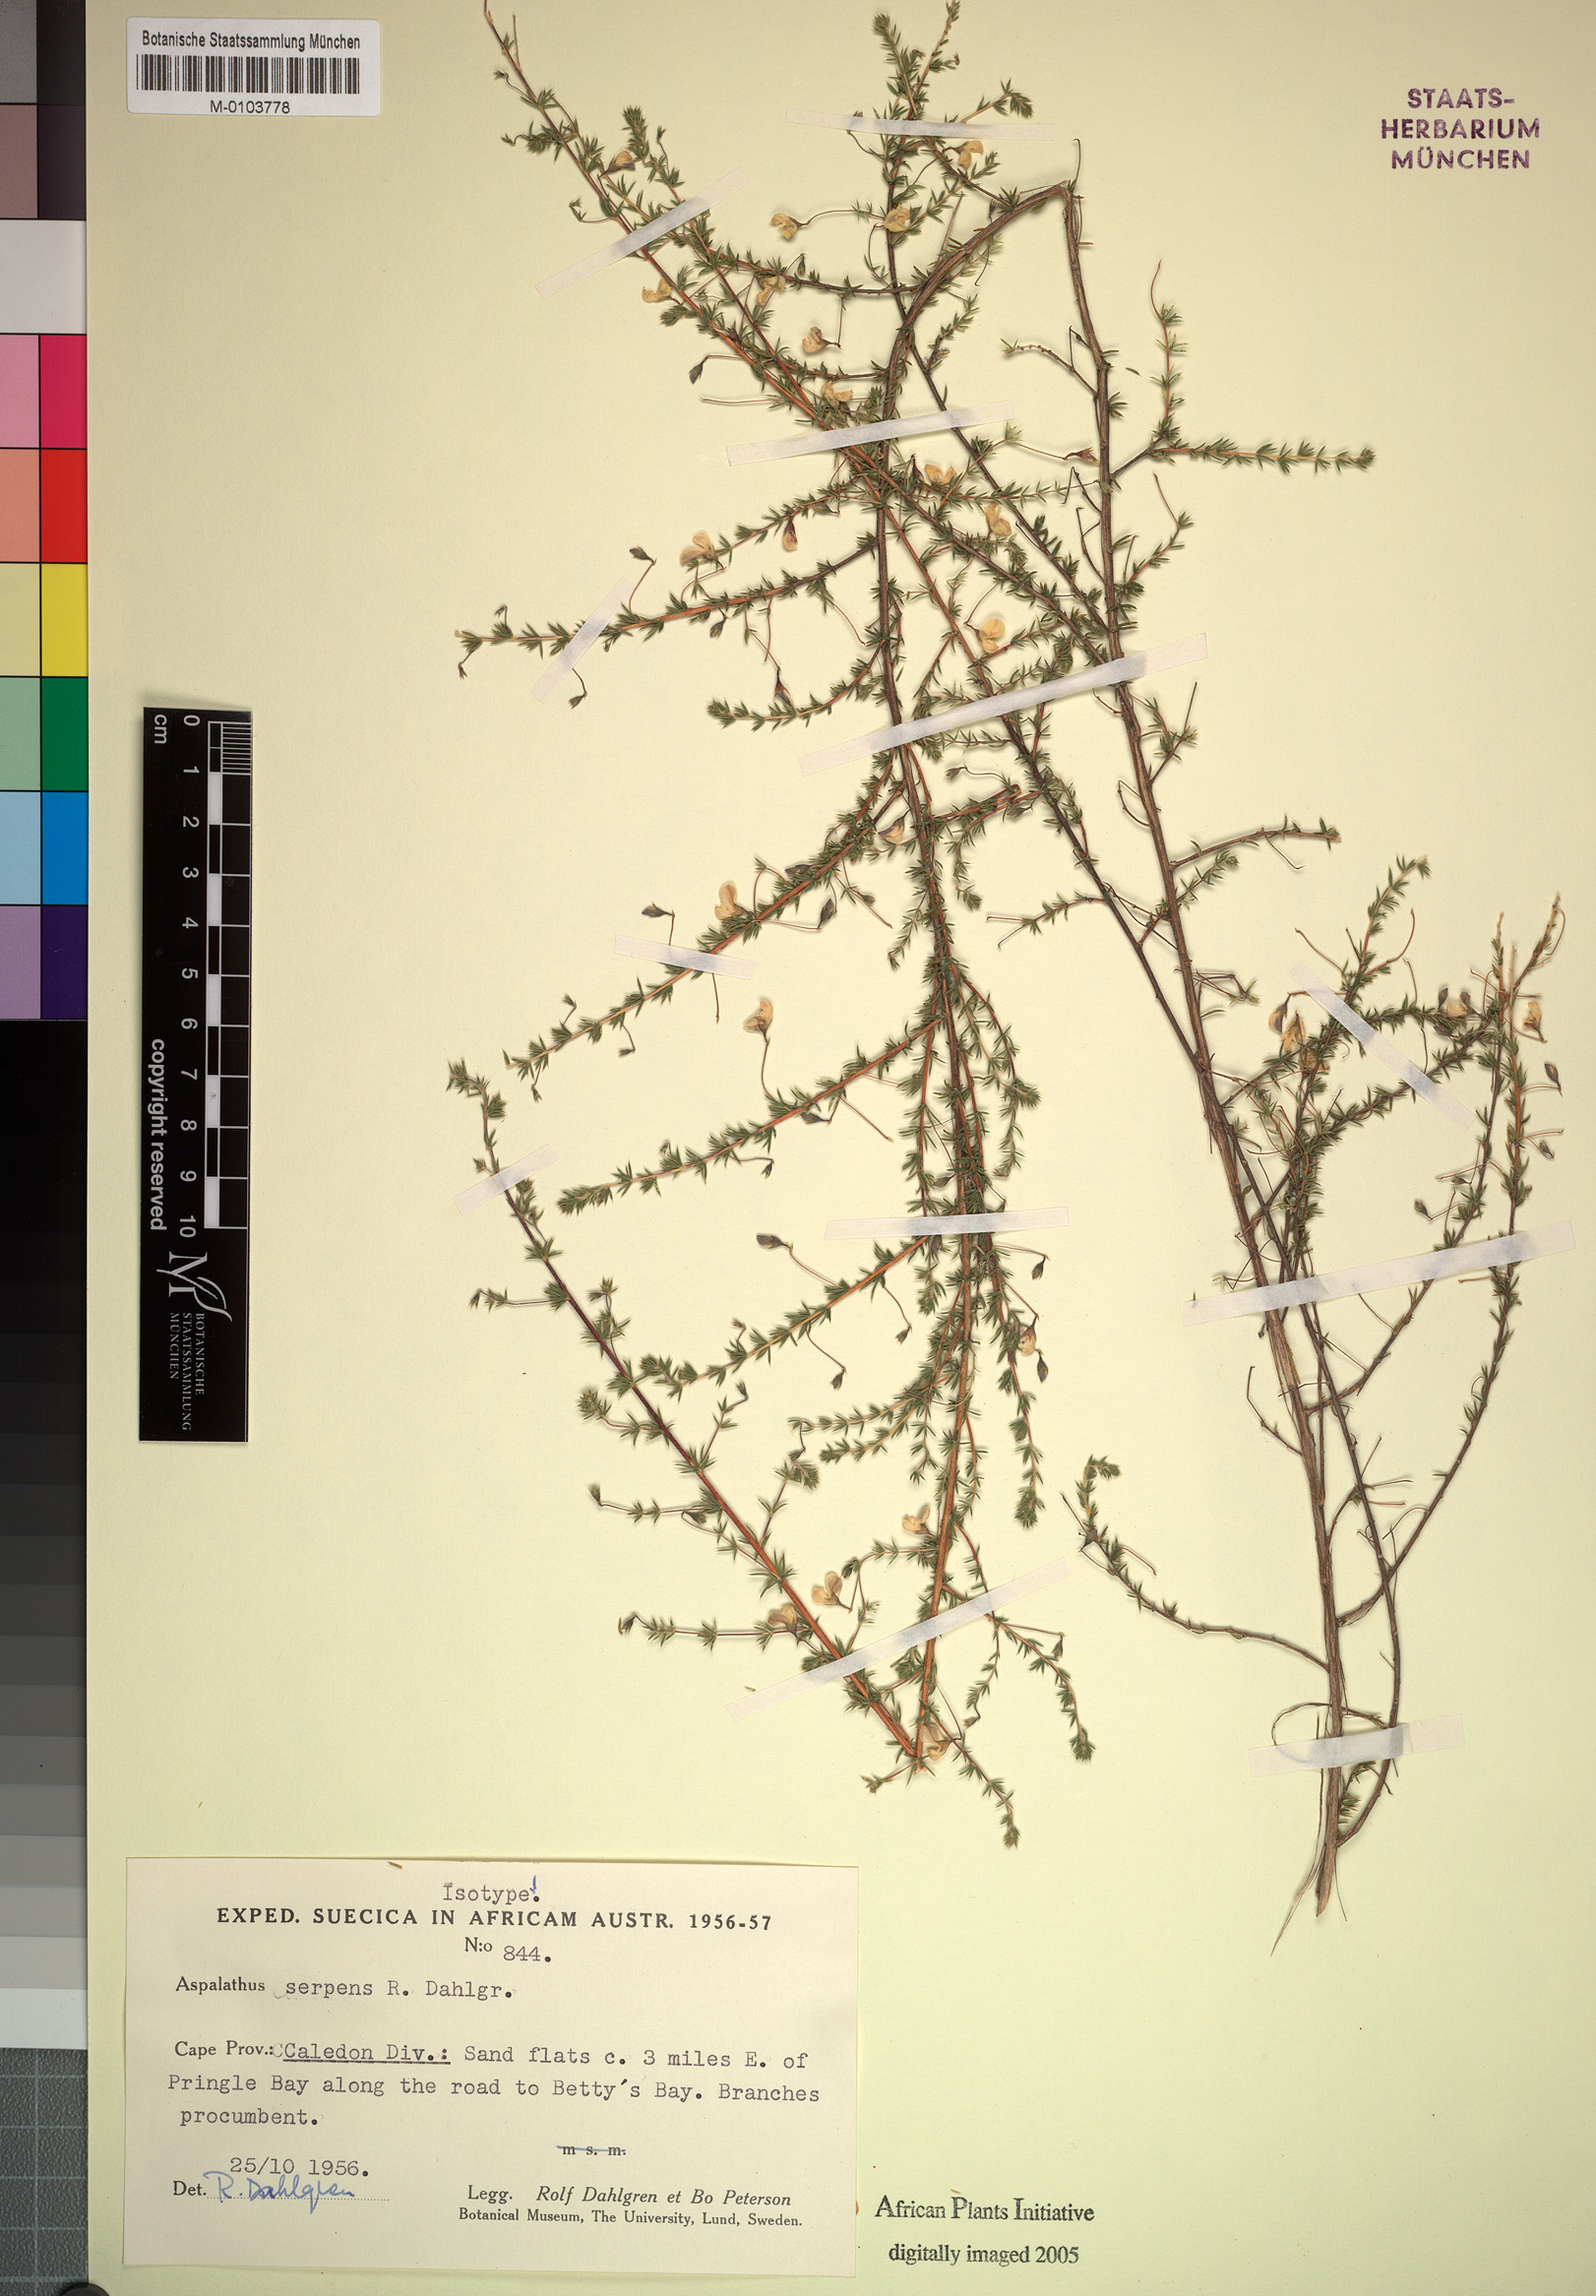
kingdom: Plantae
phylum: Tracheophyta
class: Magnoliopsida
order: Fabales
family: Fabaceae
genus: Aspalathus
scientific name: Aspalathus serpens
